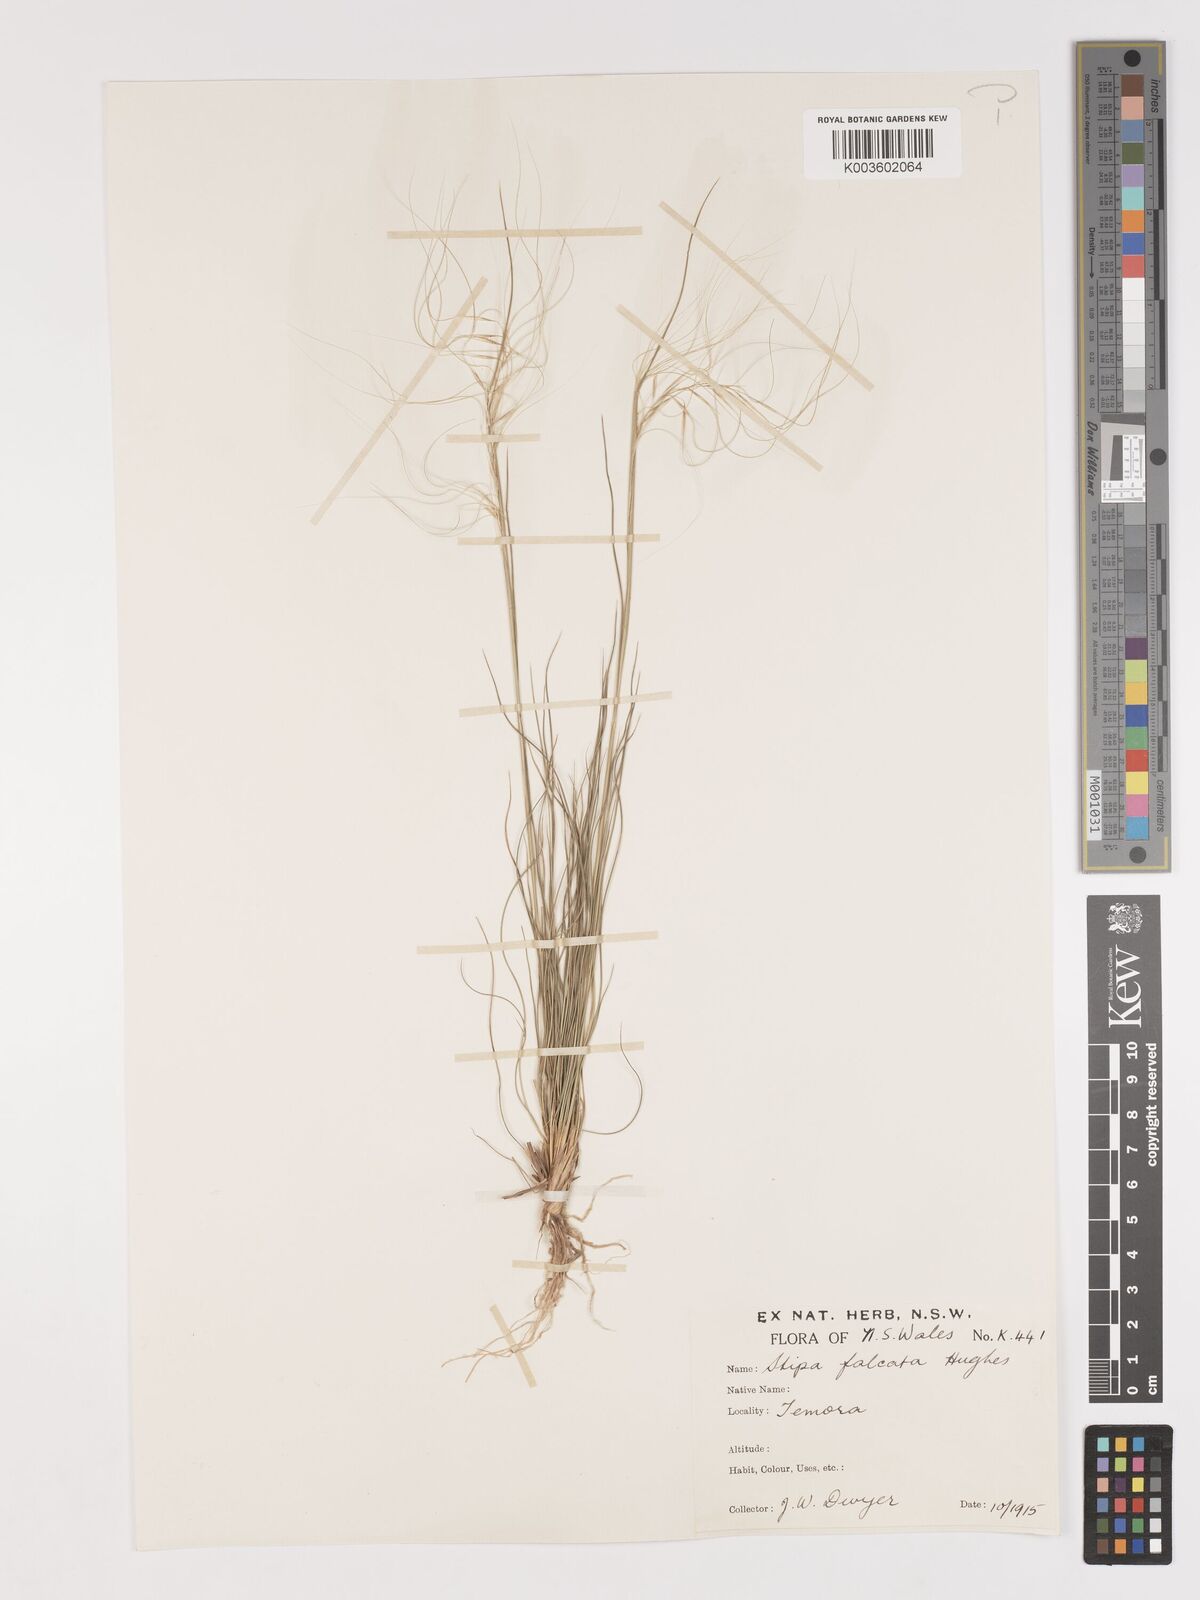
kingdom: Plantae
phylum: Tracheophyta
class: Liliopsida
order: Poales
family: Poaceae
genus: Austrostipa
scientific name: Austrostipa scabra
